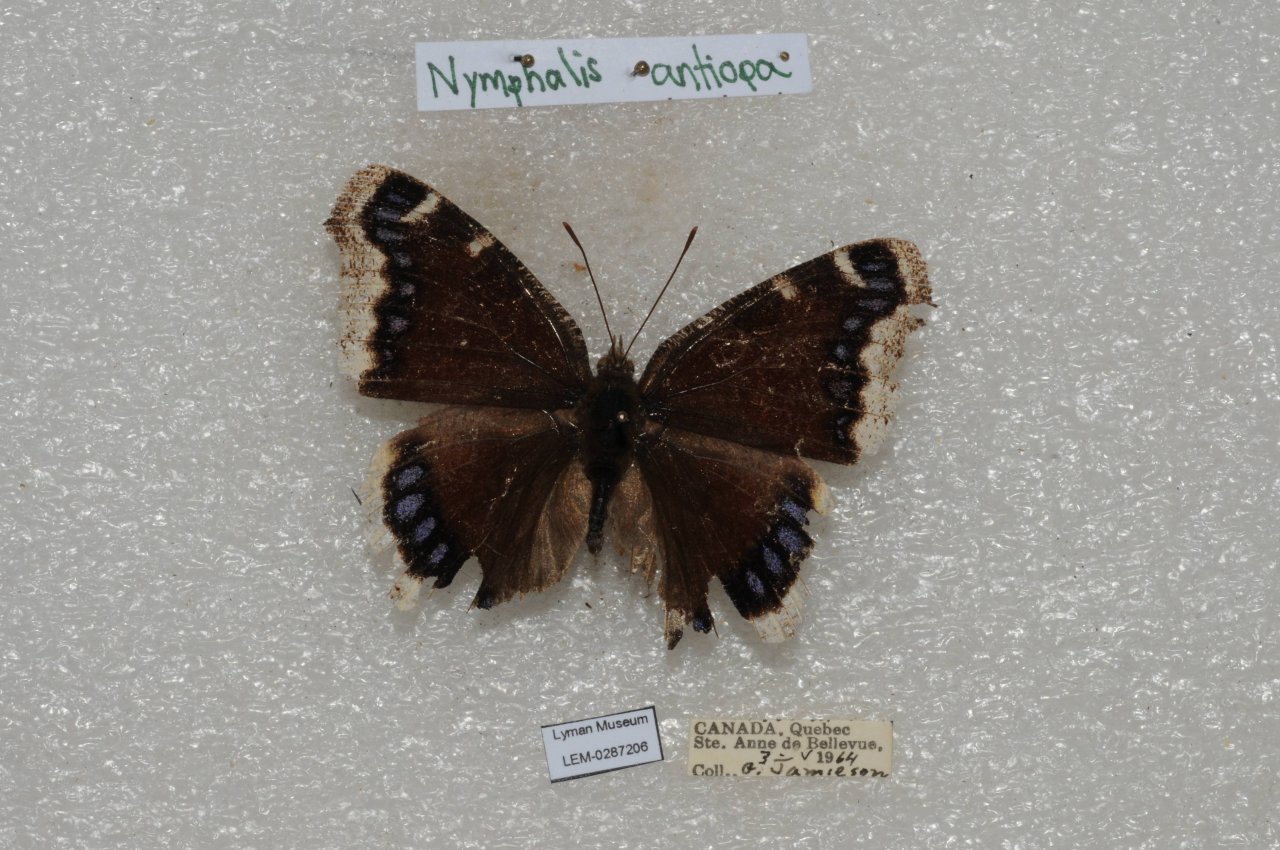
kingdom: Animalia
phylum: Arthropoda
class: Insecta
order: Lepidoptera
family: Nymphalidae
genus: Nymphalis
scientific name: Nymphalis antiopa
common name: Mourning Cloak
